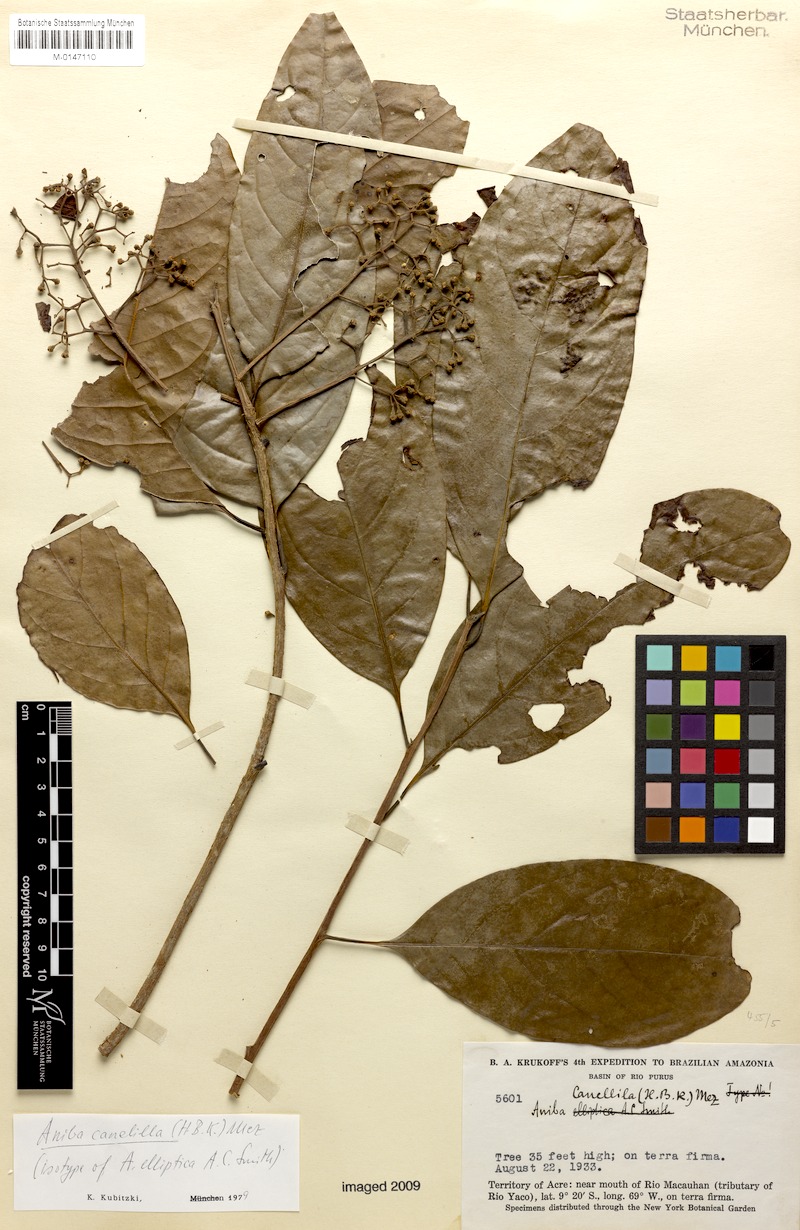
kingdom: Plantae
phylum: Tracheophyta
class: Magnoliopsida
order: Laurales
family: Lauraceae
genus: Aniba
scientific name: Aniba canelilla
